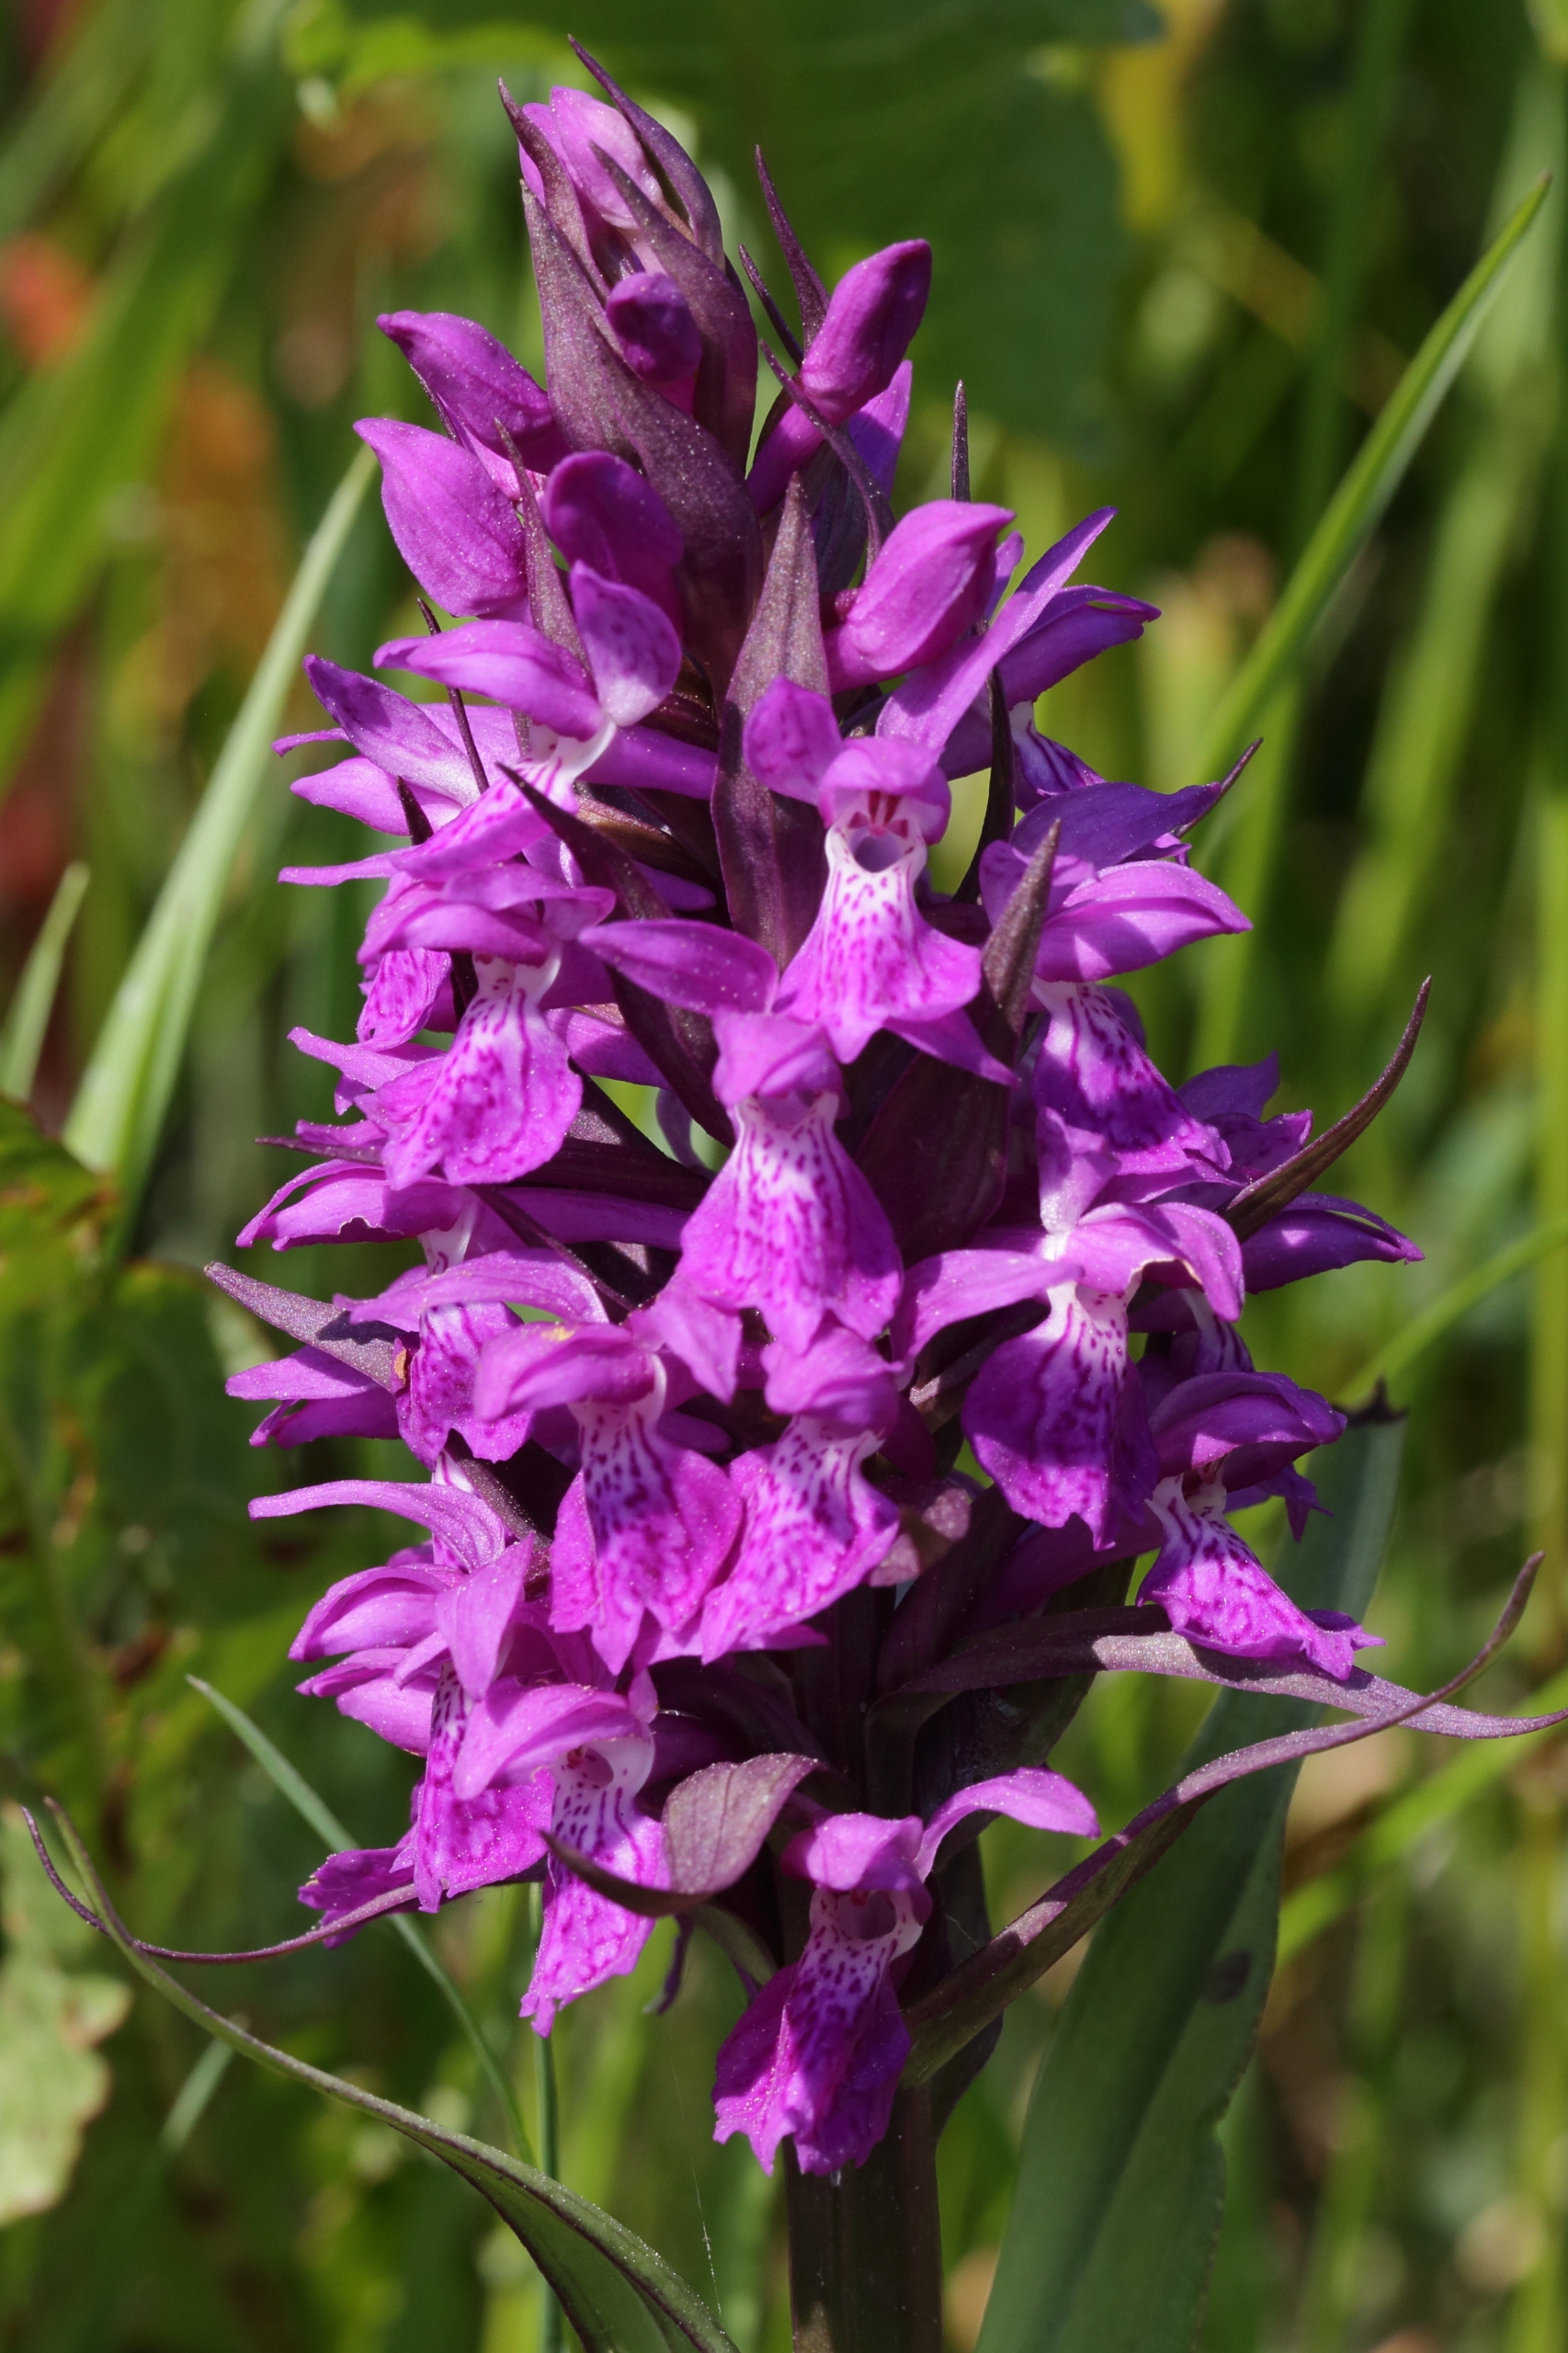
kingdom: Plantae
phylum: Tracheophyta
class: Liliopsida
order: Asparagales
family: Orchidaceae
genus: Dactylorhiza
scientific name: Dactylorhiza majalis
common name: Maj-gøgeurt
